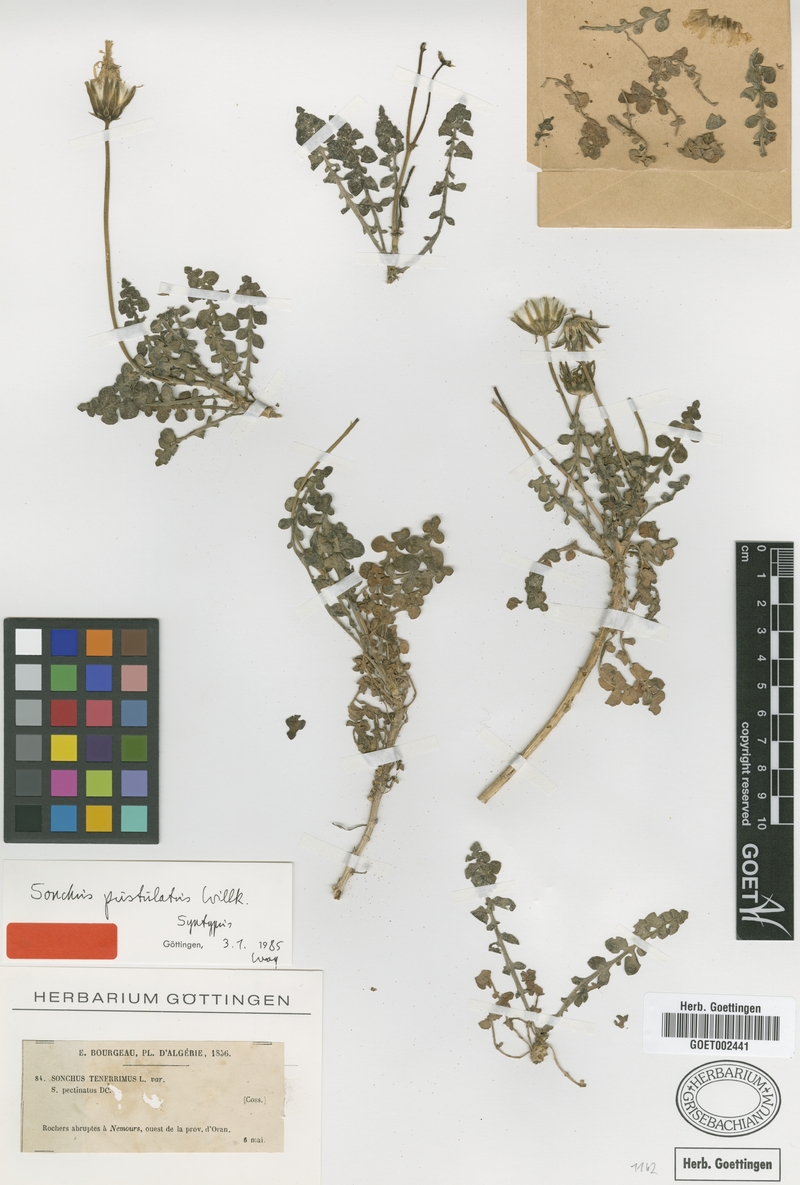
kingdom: Plantae
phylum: Tracheophyta
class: Magnoliopsida
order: Asterales
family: Asteraceae
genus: Sonchus
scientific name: Sonchus pustulatus
